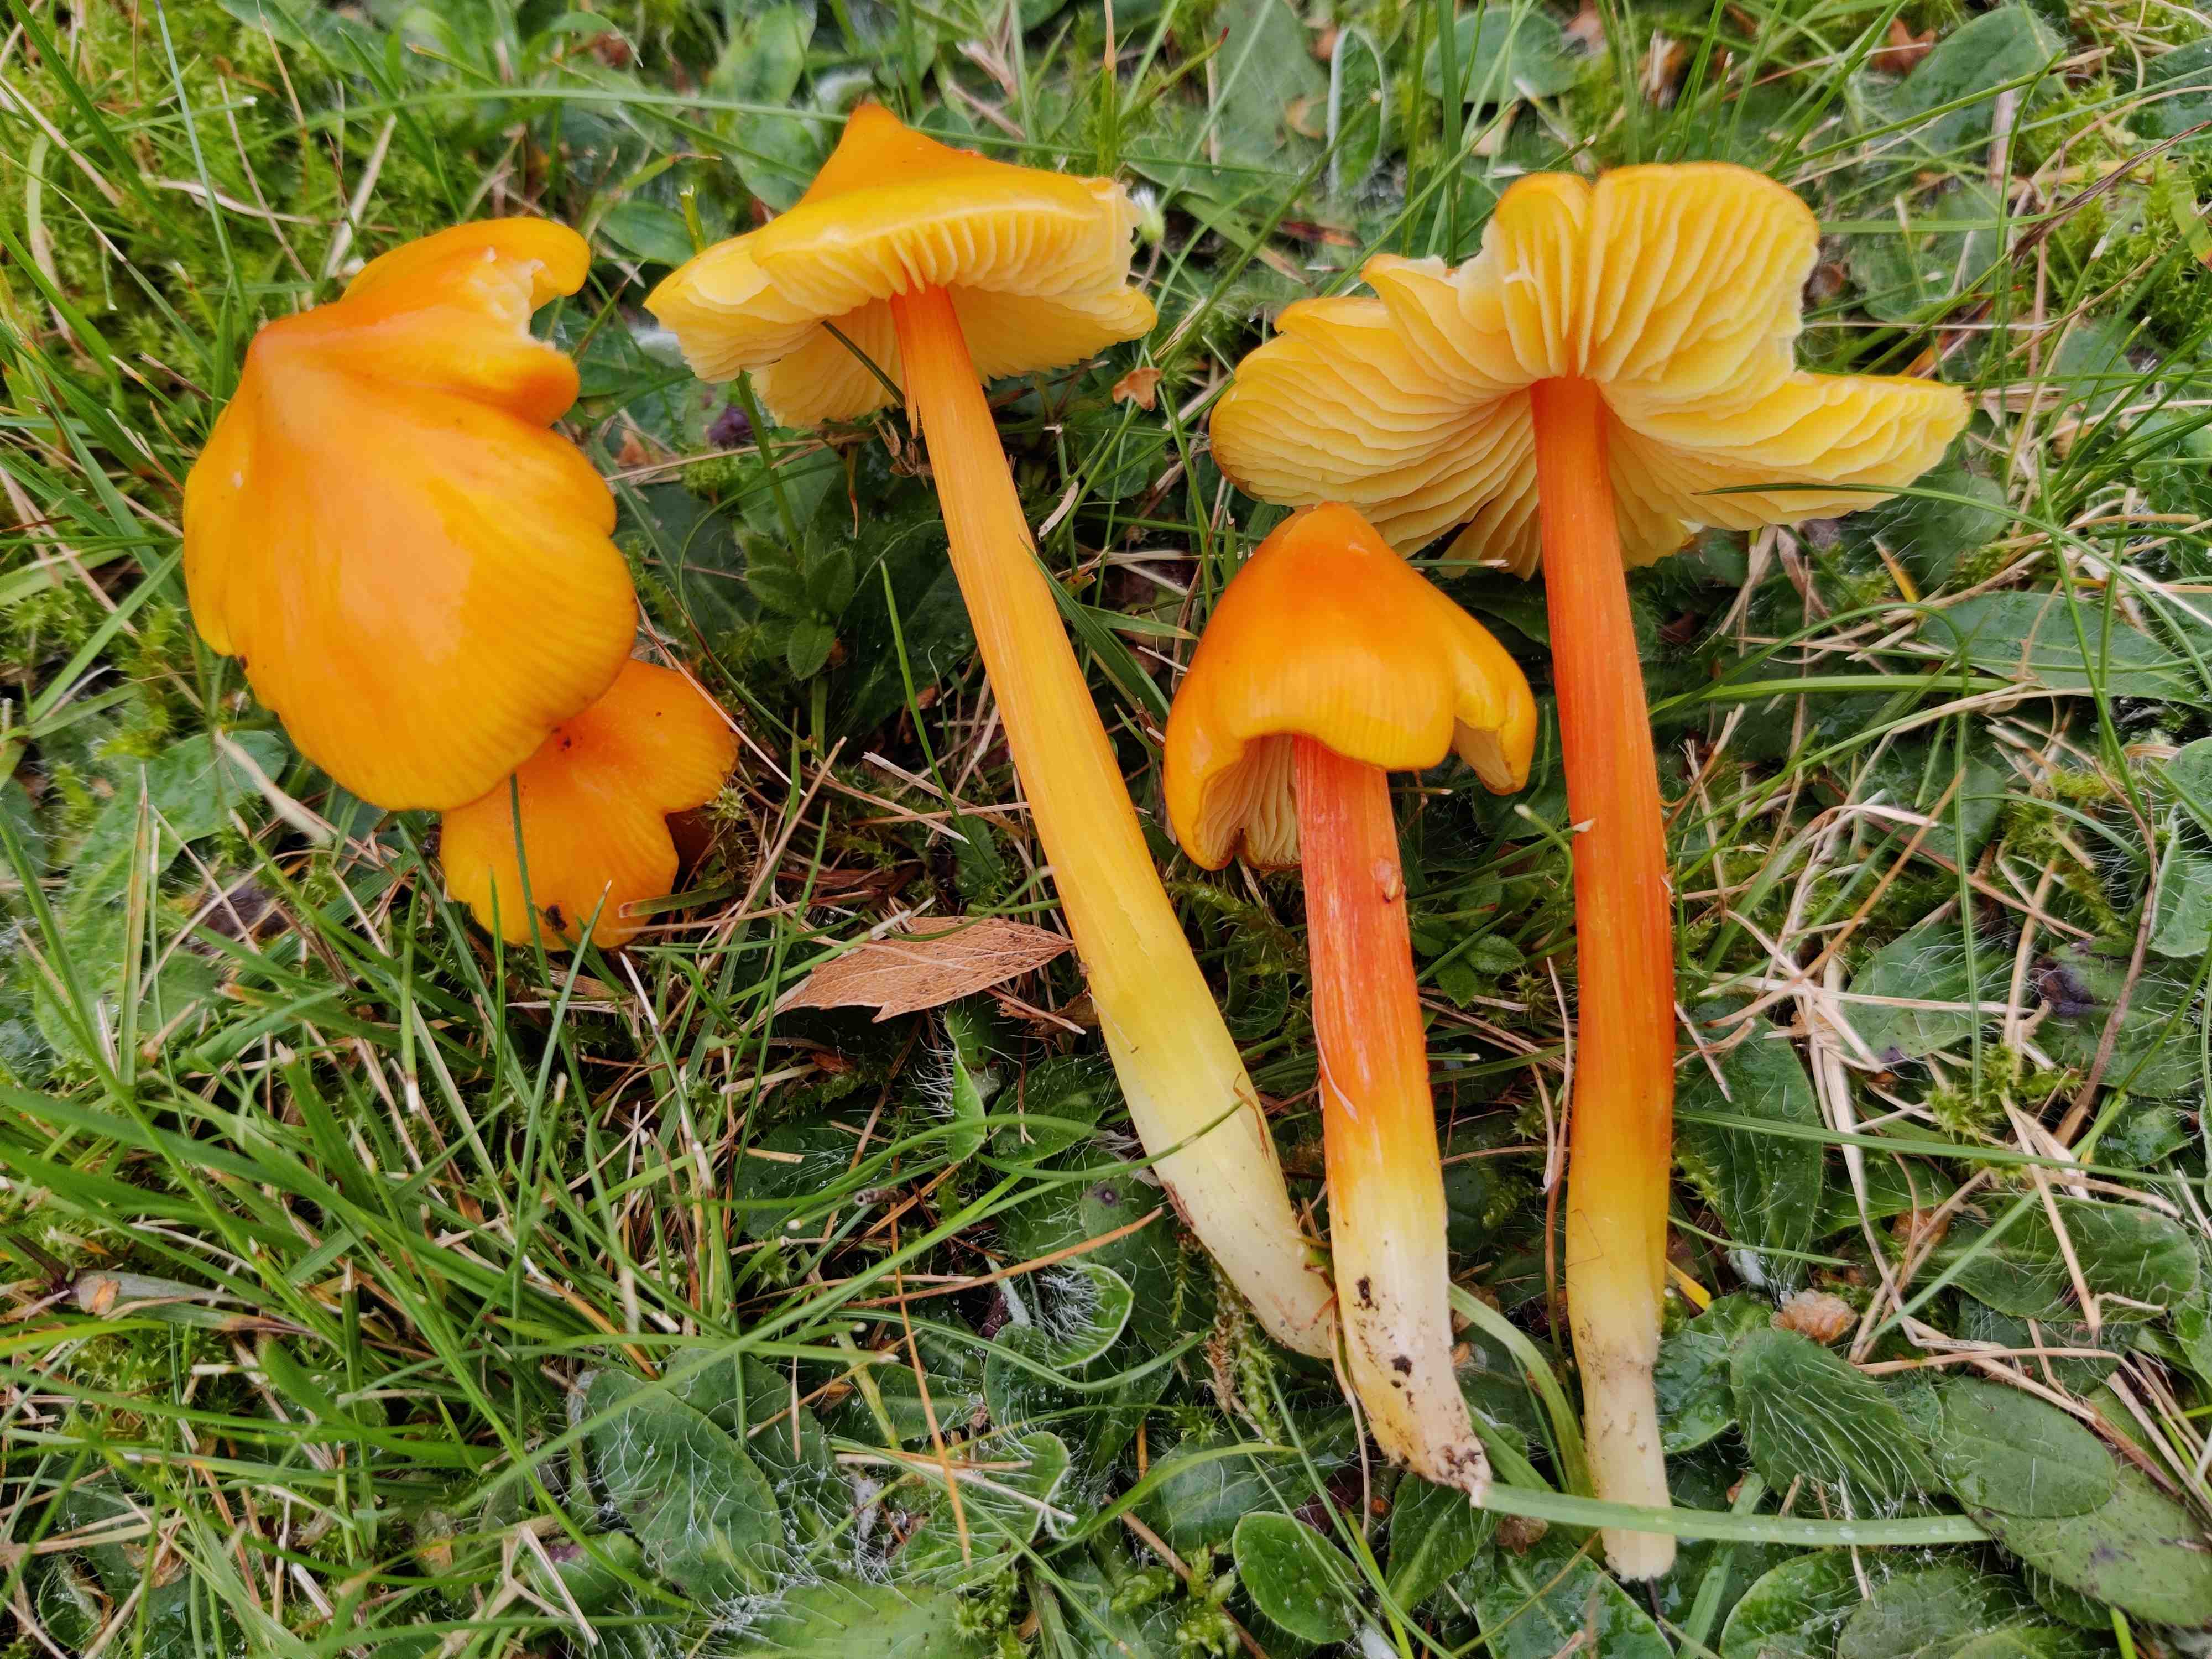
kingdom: Fungi
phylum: Basidiomycota
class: Agaricomycetes
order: Agaricales
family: Hygrophoraceae
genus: Hygrocybe
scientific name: Hygrocybe acutoconica
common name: spidspuklet vokshat
